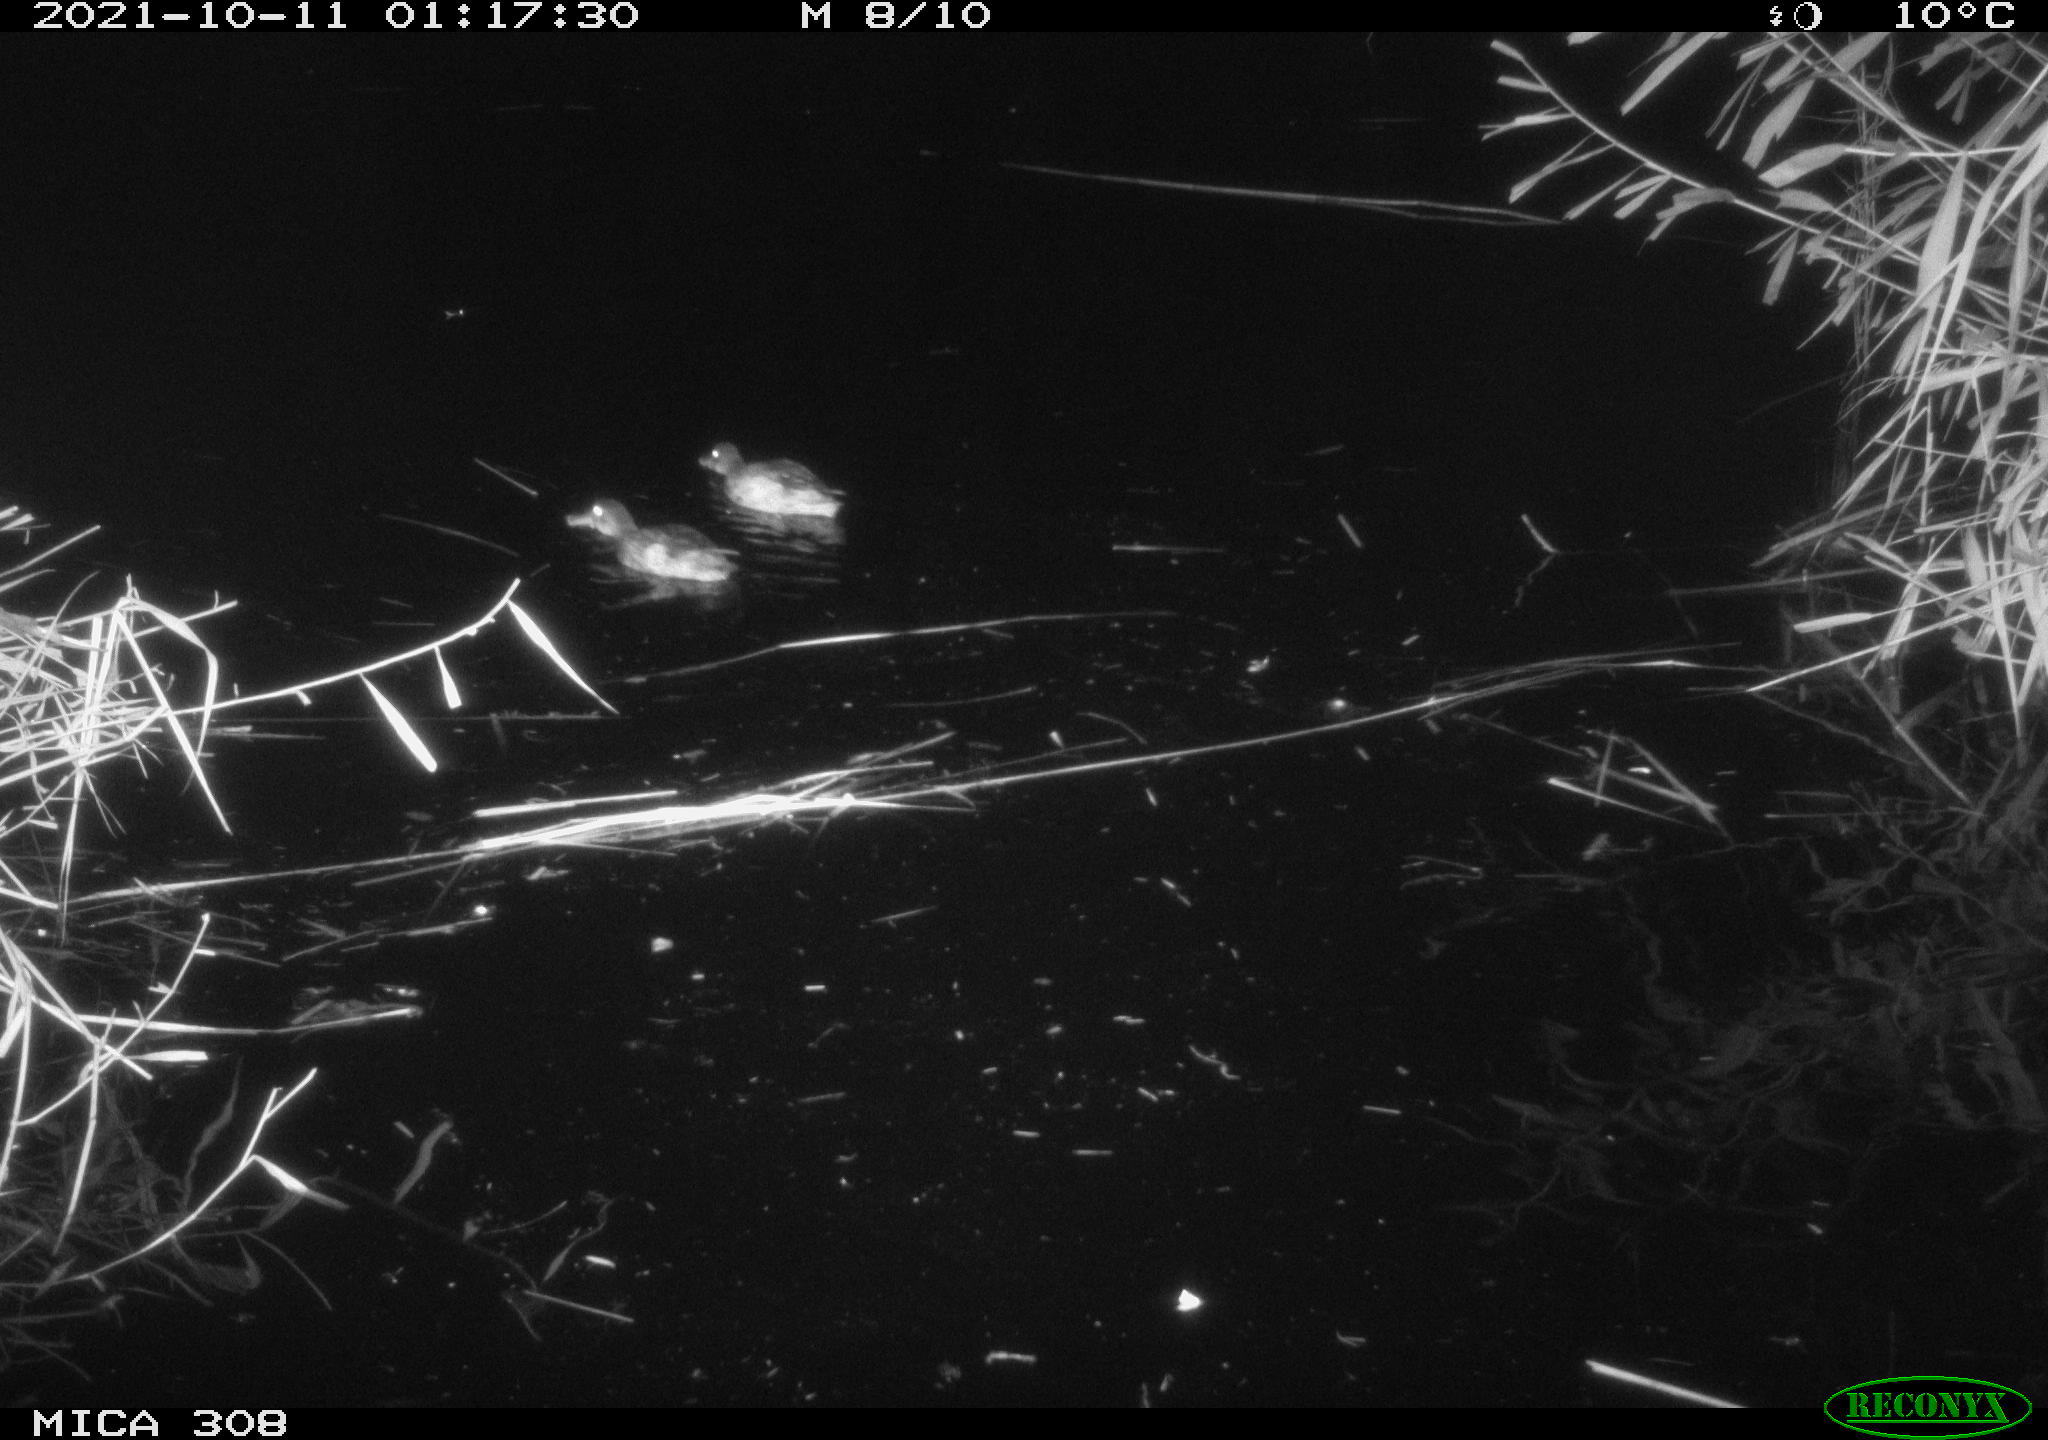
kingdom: Animalia
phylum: Chordata
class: Aves
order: Anseriformes
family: Anatidae
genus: Spatula
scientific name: Spatula clypeata
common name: Northern shoveler
